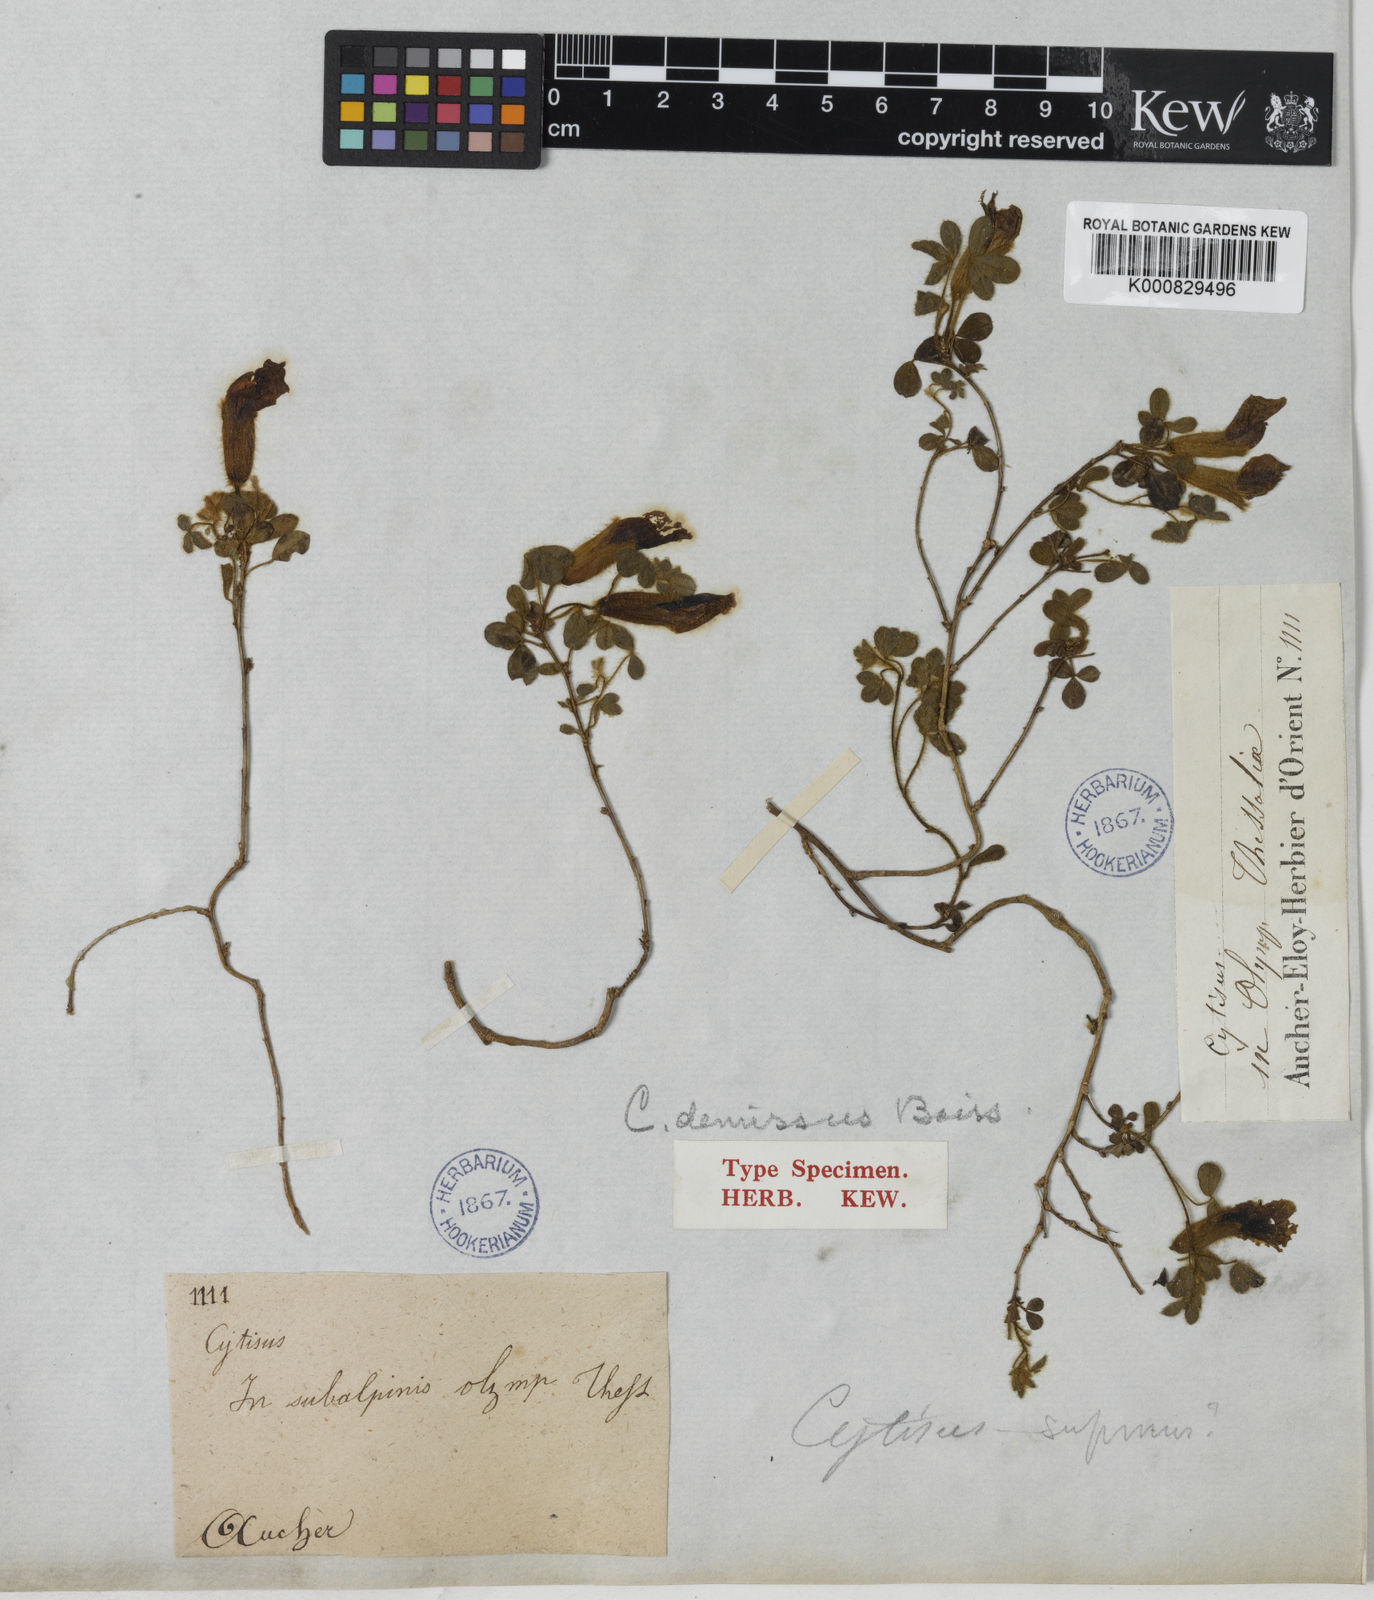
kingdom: Plantae
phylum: Tracheophyta
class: Magnoliopsida
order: Fabales
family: Fabaceae
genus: Chamaecytisus
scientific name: Chamaecytisus hirsutus
